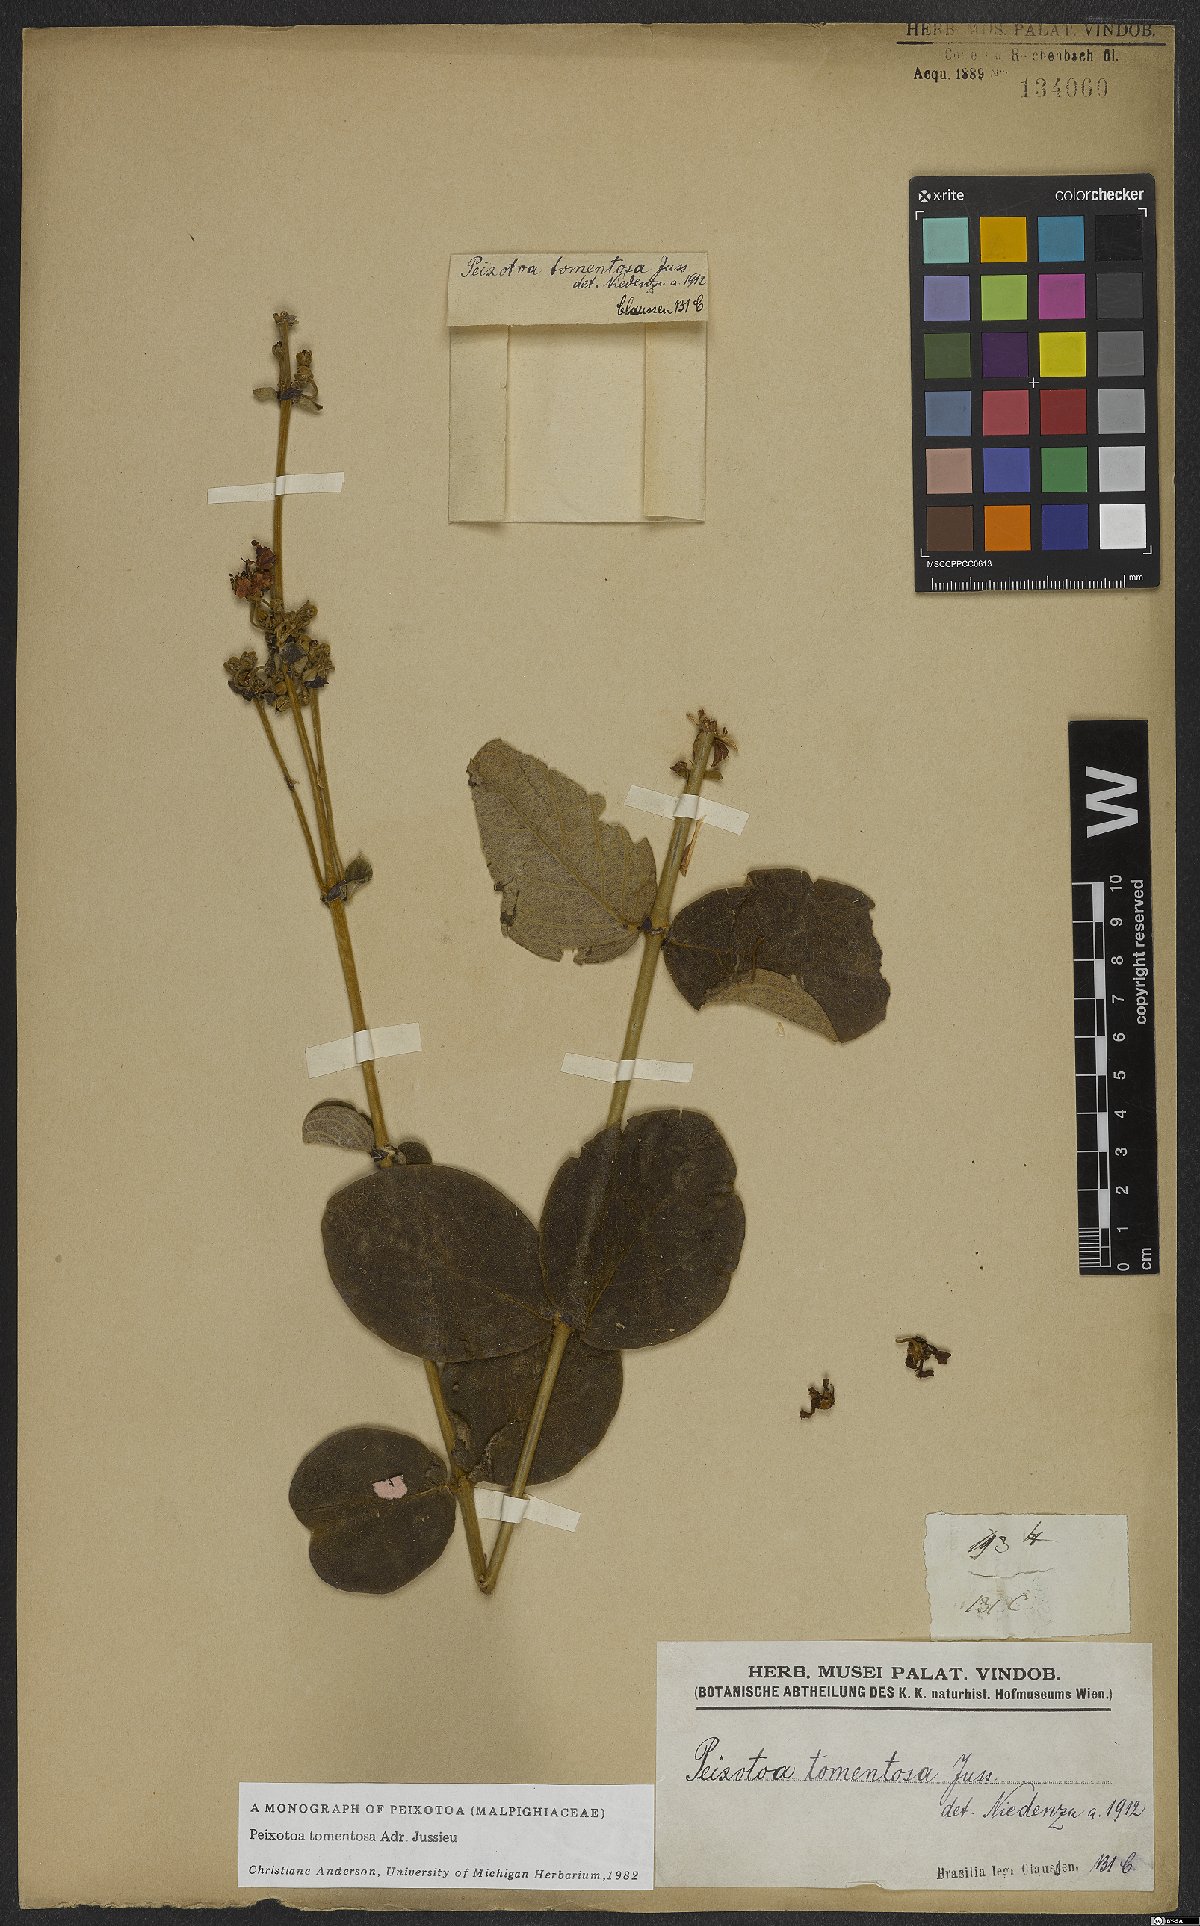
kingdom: Plantae
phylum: Tracheophyta
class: Magnoliopsida
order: Malpighiales
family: Malpighiaceae
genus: Peixotoa
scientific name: Peixotoa tomentosa
